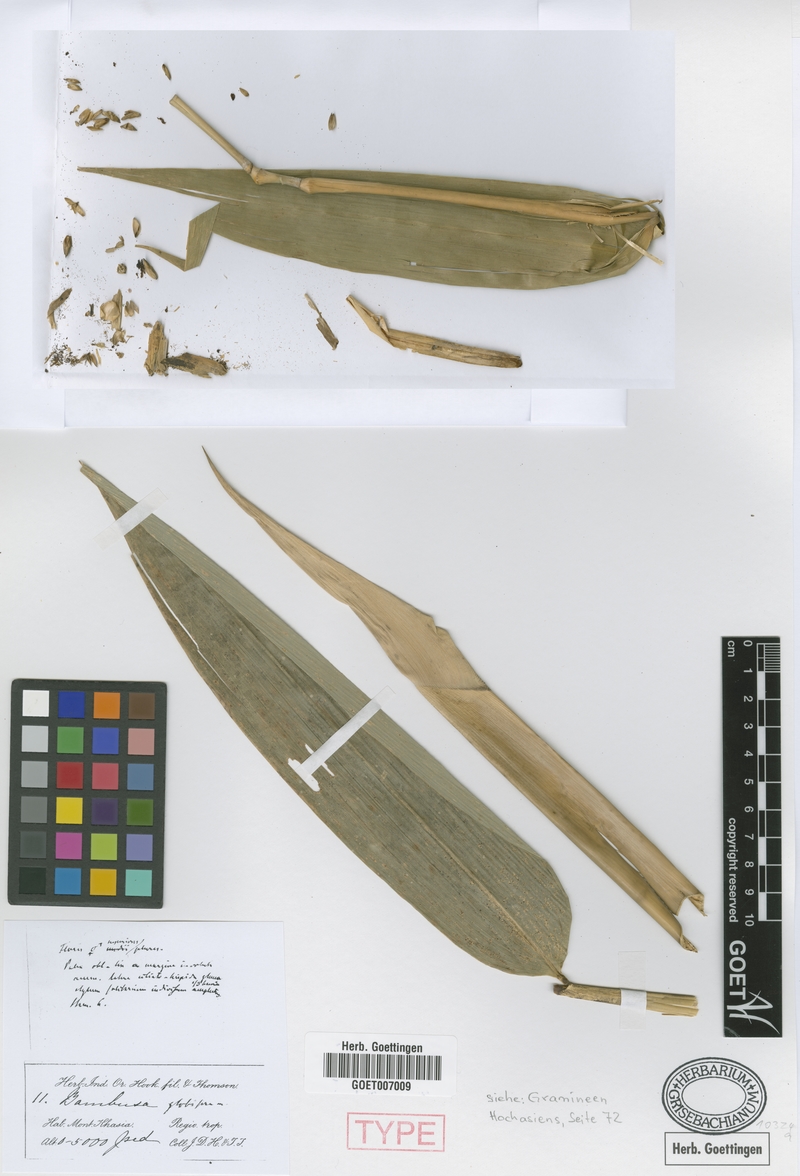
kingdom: Plantae
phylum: Tracheophyta
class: Liliopsida
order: Poales
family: Poaceae
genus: Dendrocalamus
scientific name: Dendrocalamus hookeri
